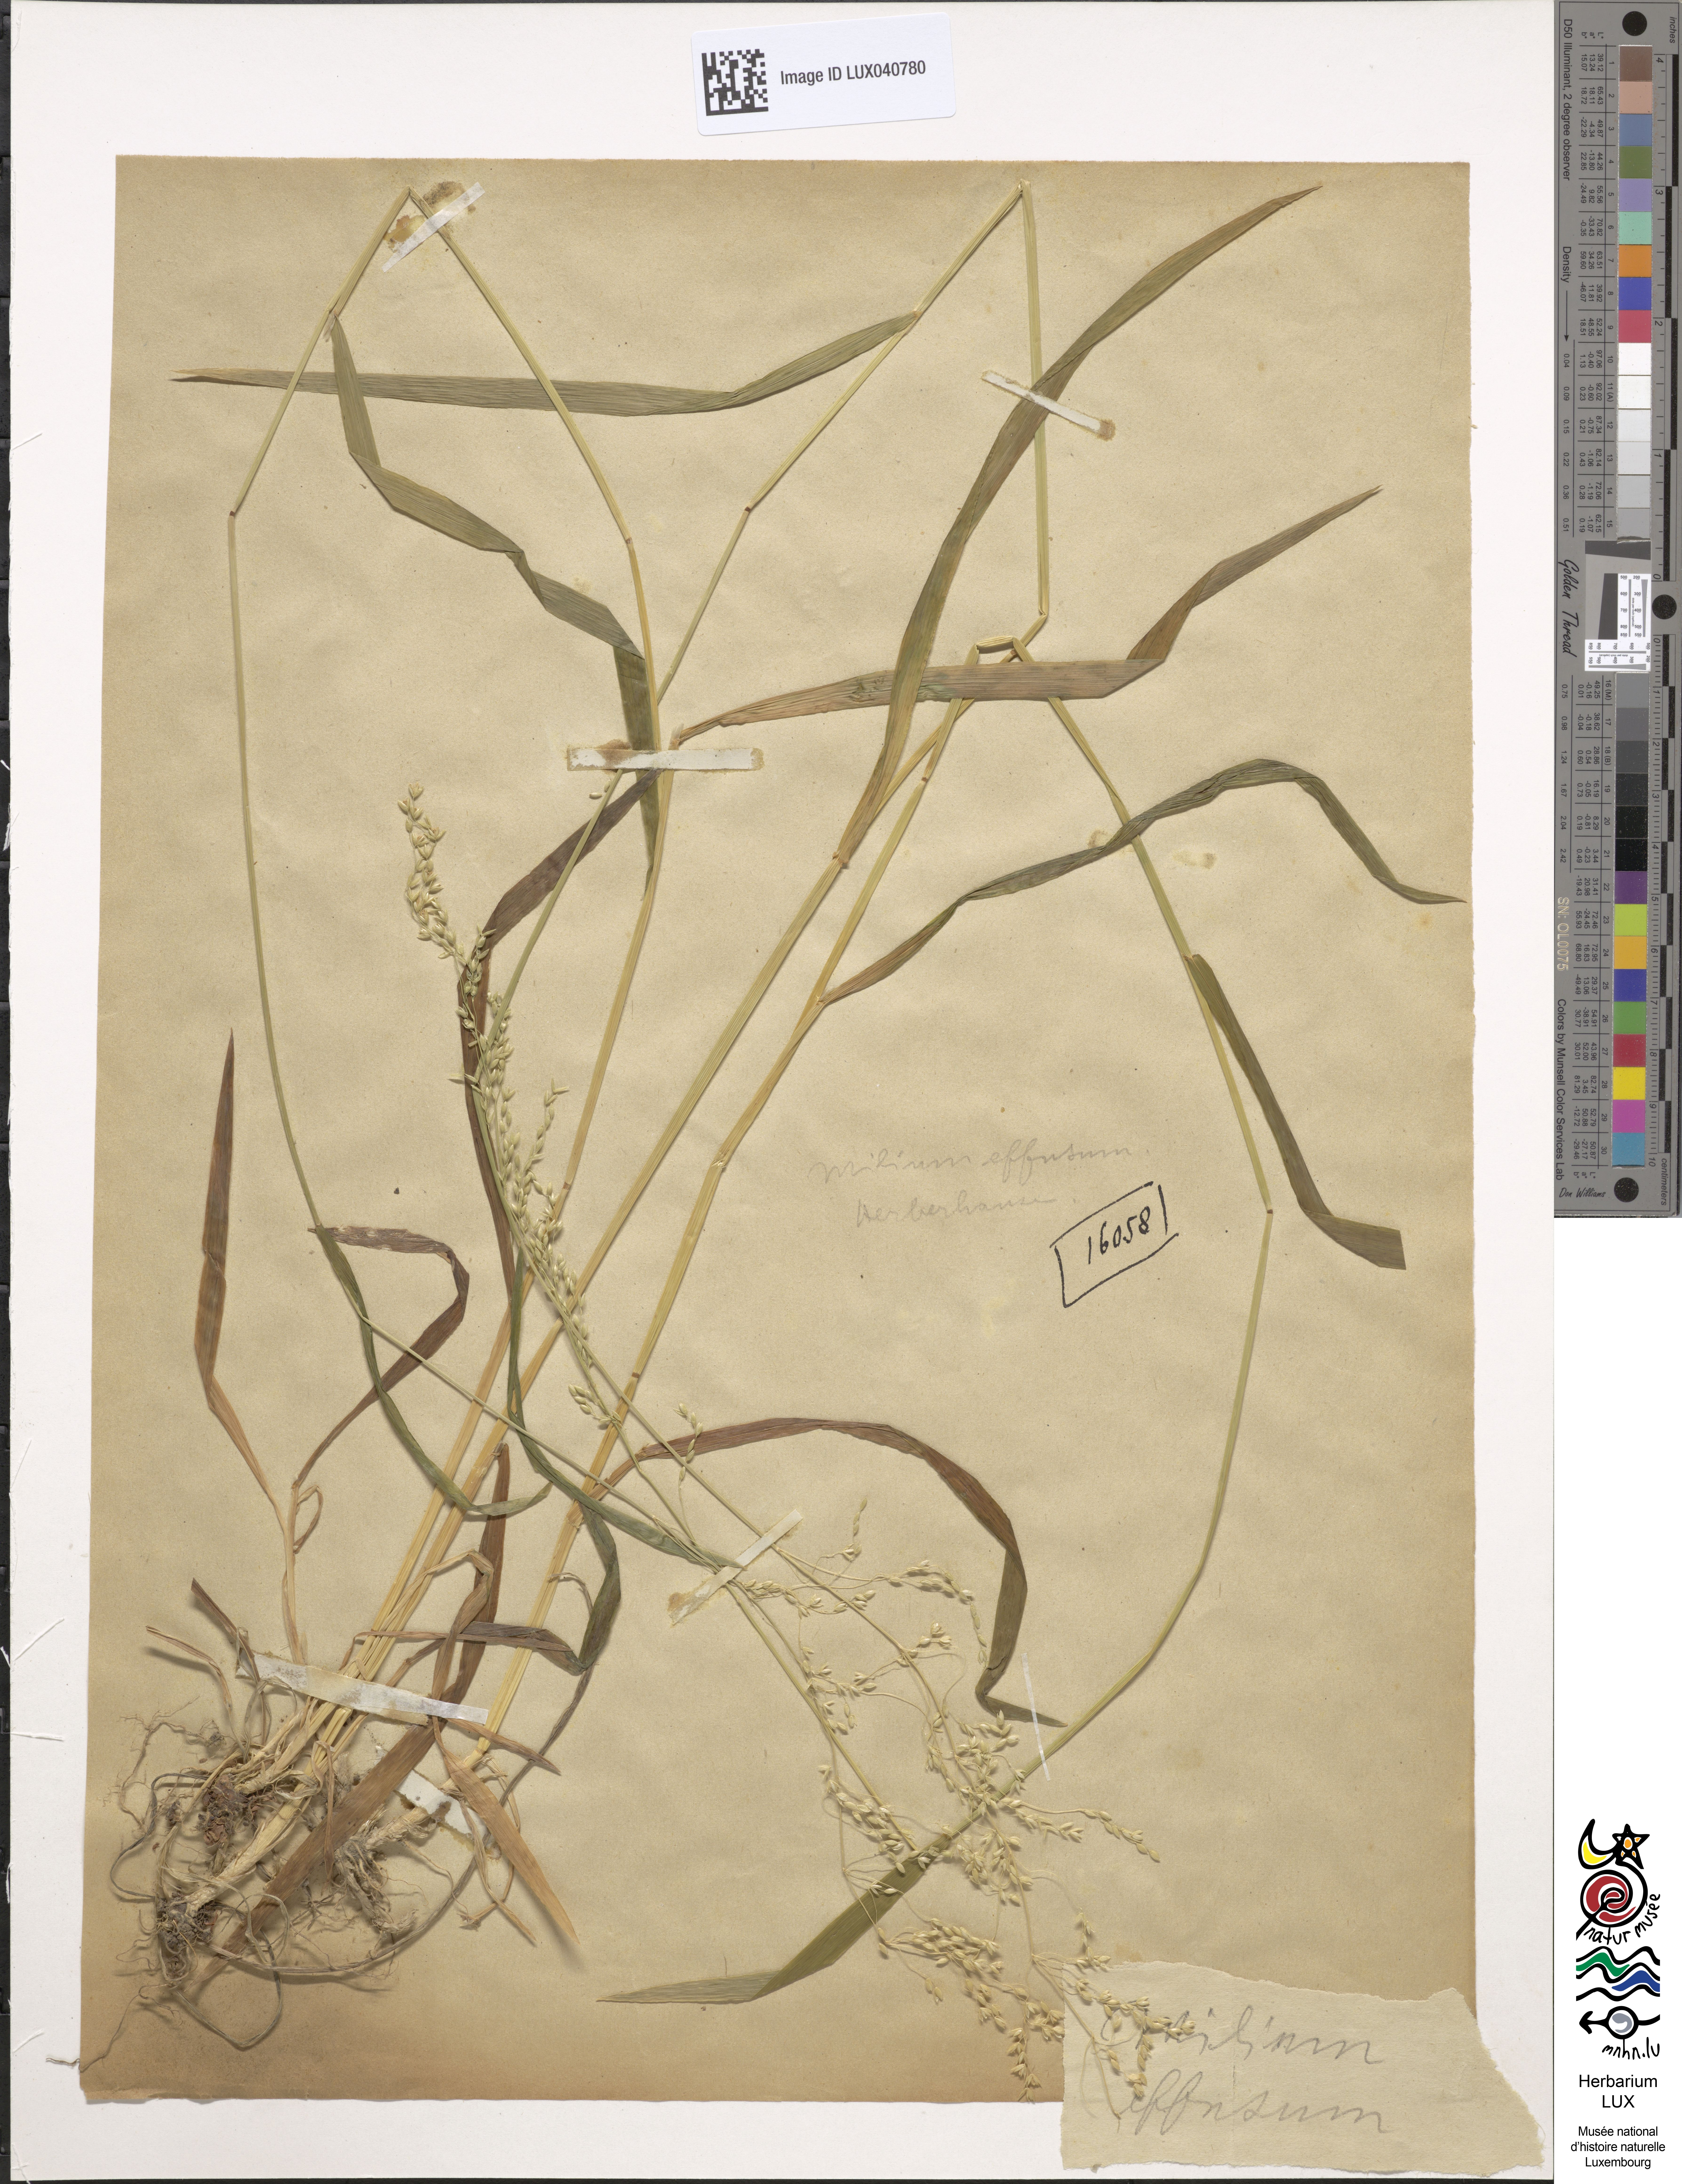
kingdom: Plantae
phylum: Tracheophyta
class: Liliopsida
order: Poales
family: Poaceae
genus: Milium
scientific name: Milium effusum
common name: Wood millet
